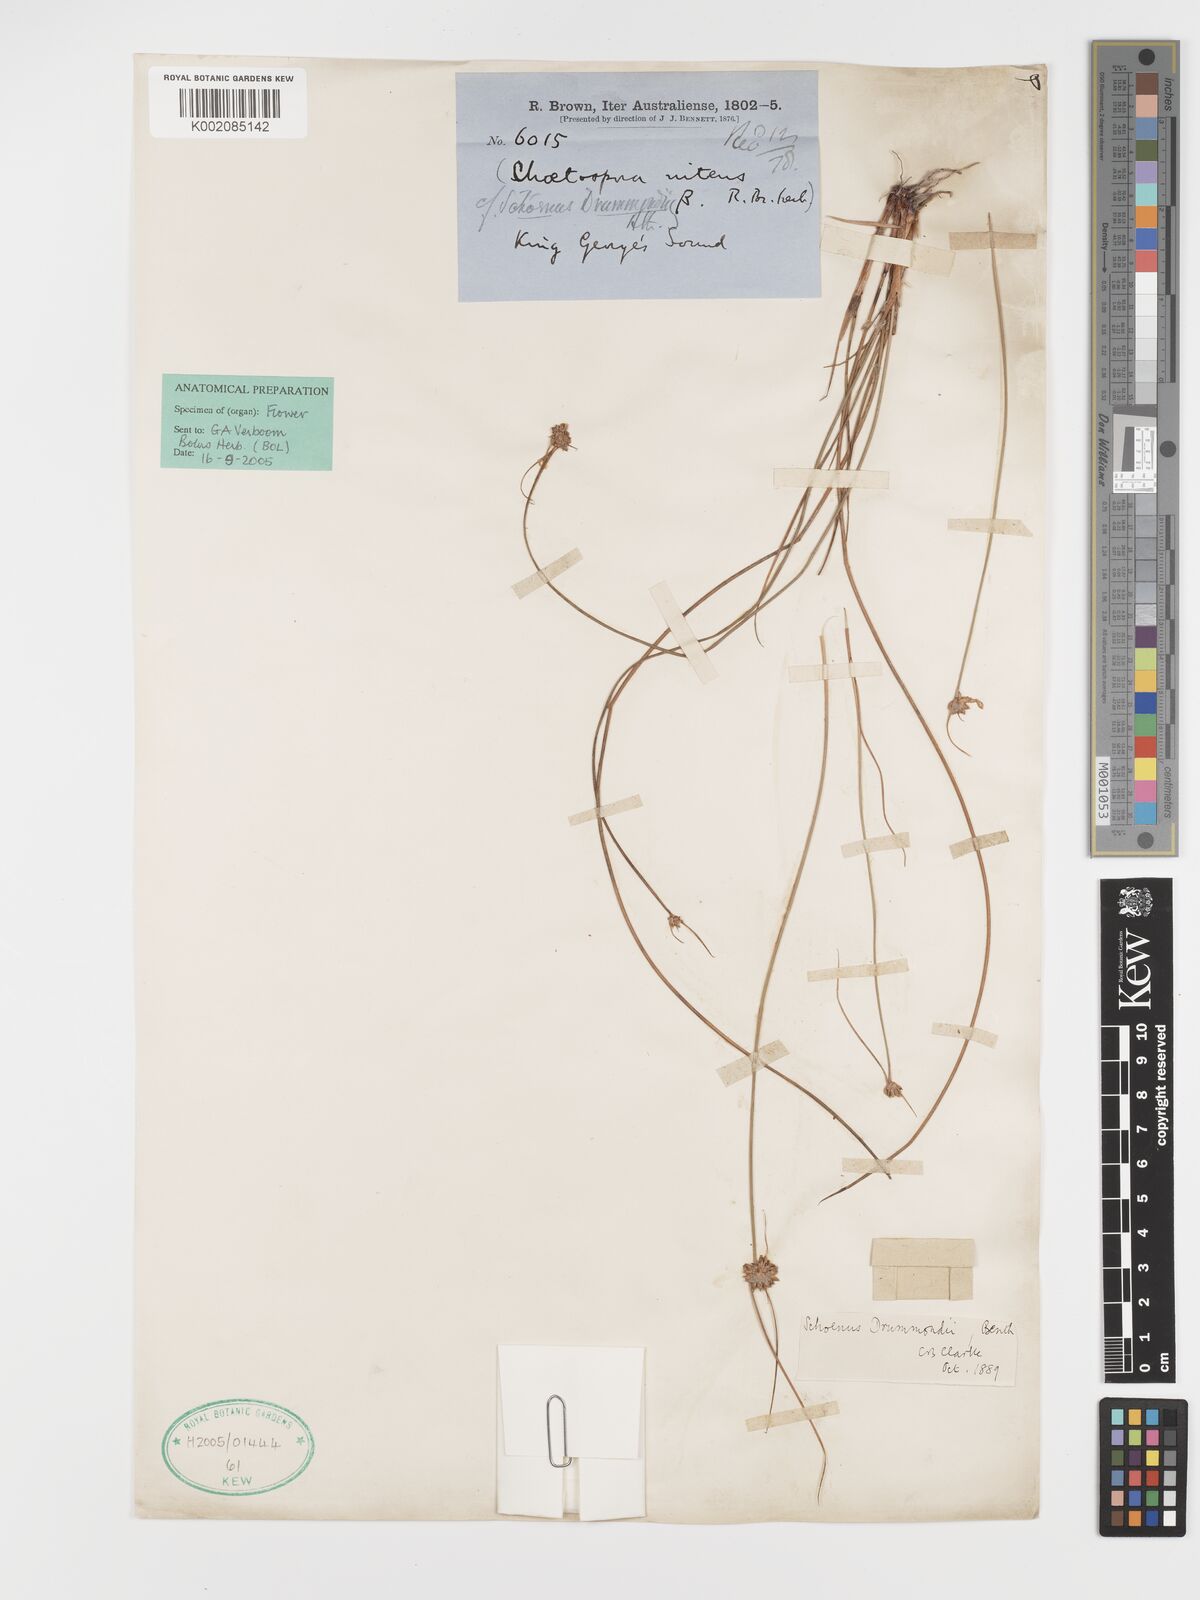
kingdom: Plantae
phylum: Tracheophyta
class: Liliopsida
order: Poales
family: Cyperaceae
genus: Schoenus
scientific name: Schoenus submicrostachyus
